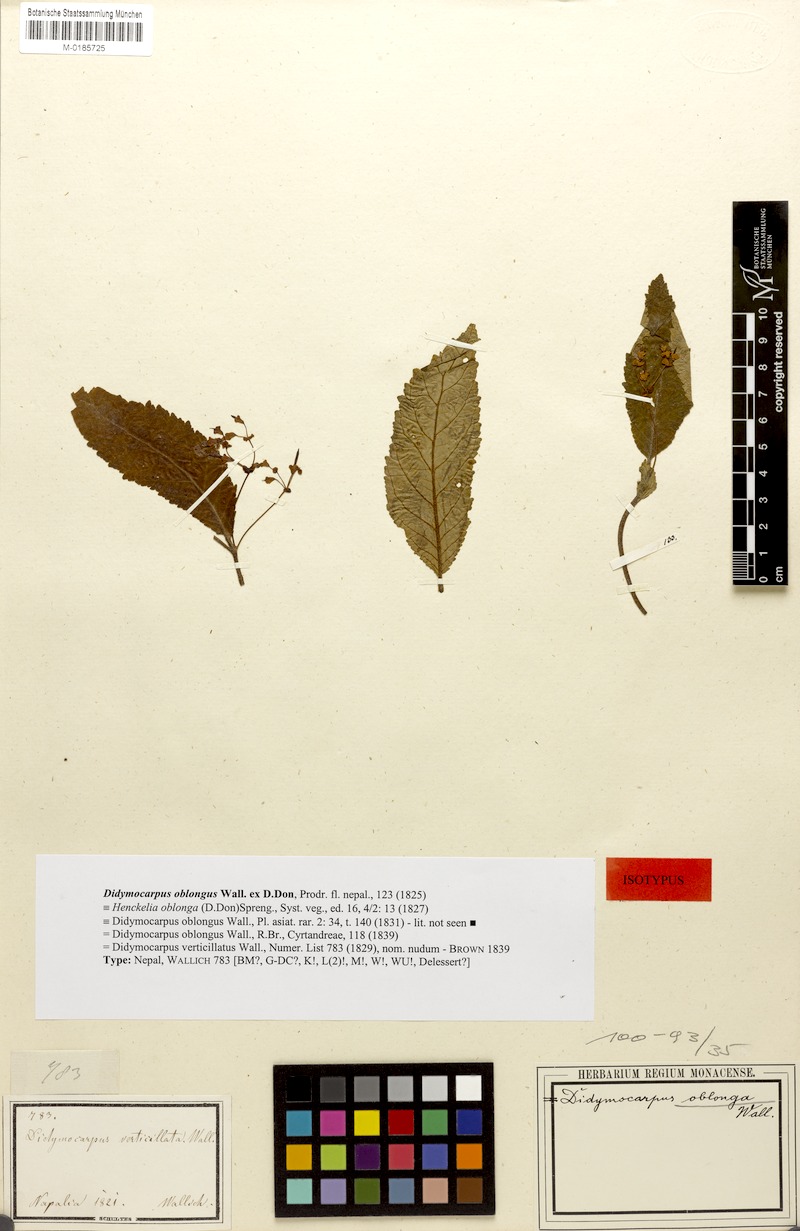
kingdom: Plantae
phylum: Tracheophyta
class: Magnoliopsida
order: Lamiales
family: Gesneriaceae
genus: Didymocarpus
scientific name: Didymocarpus oblongus
